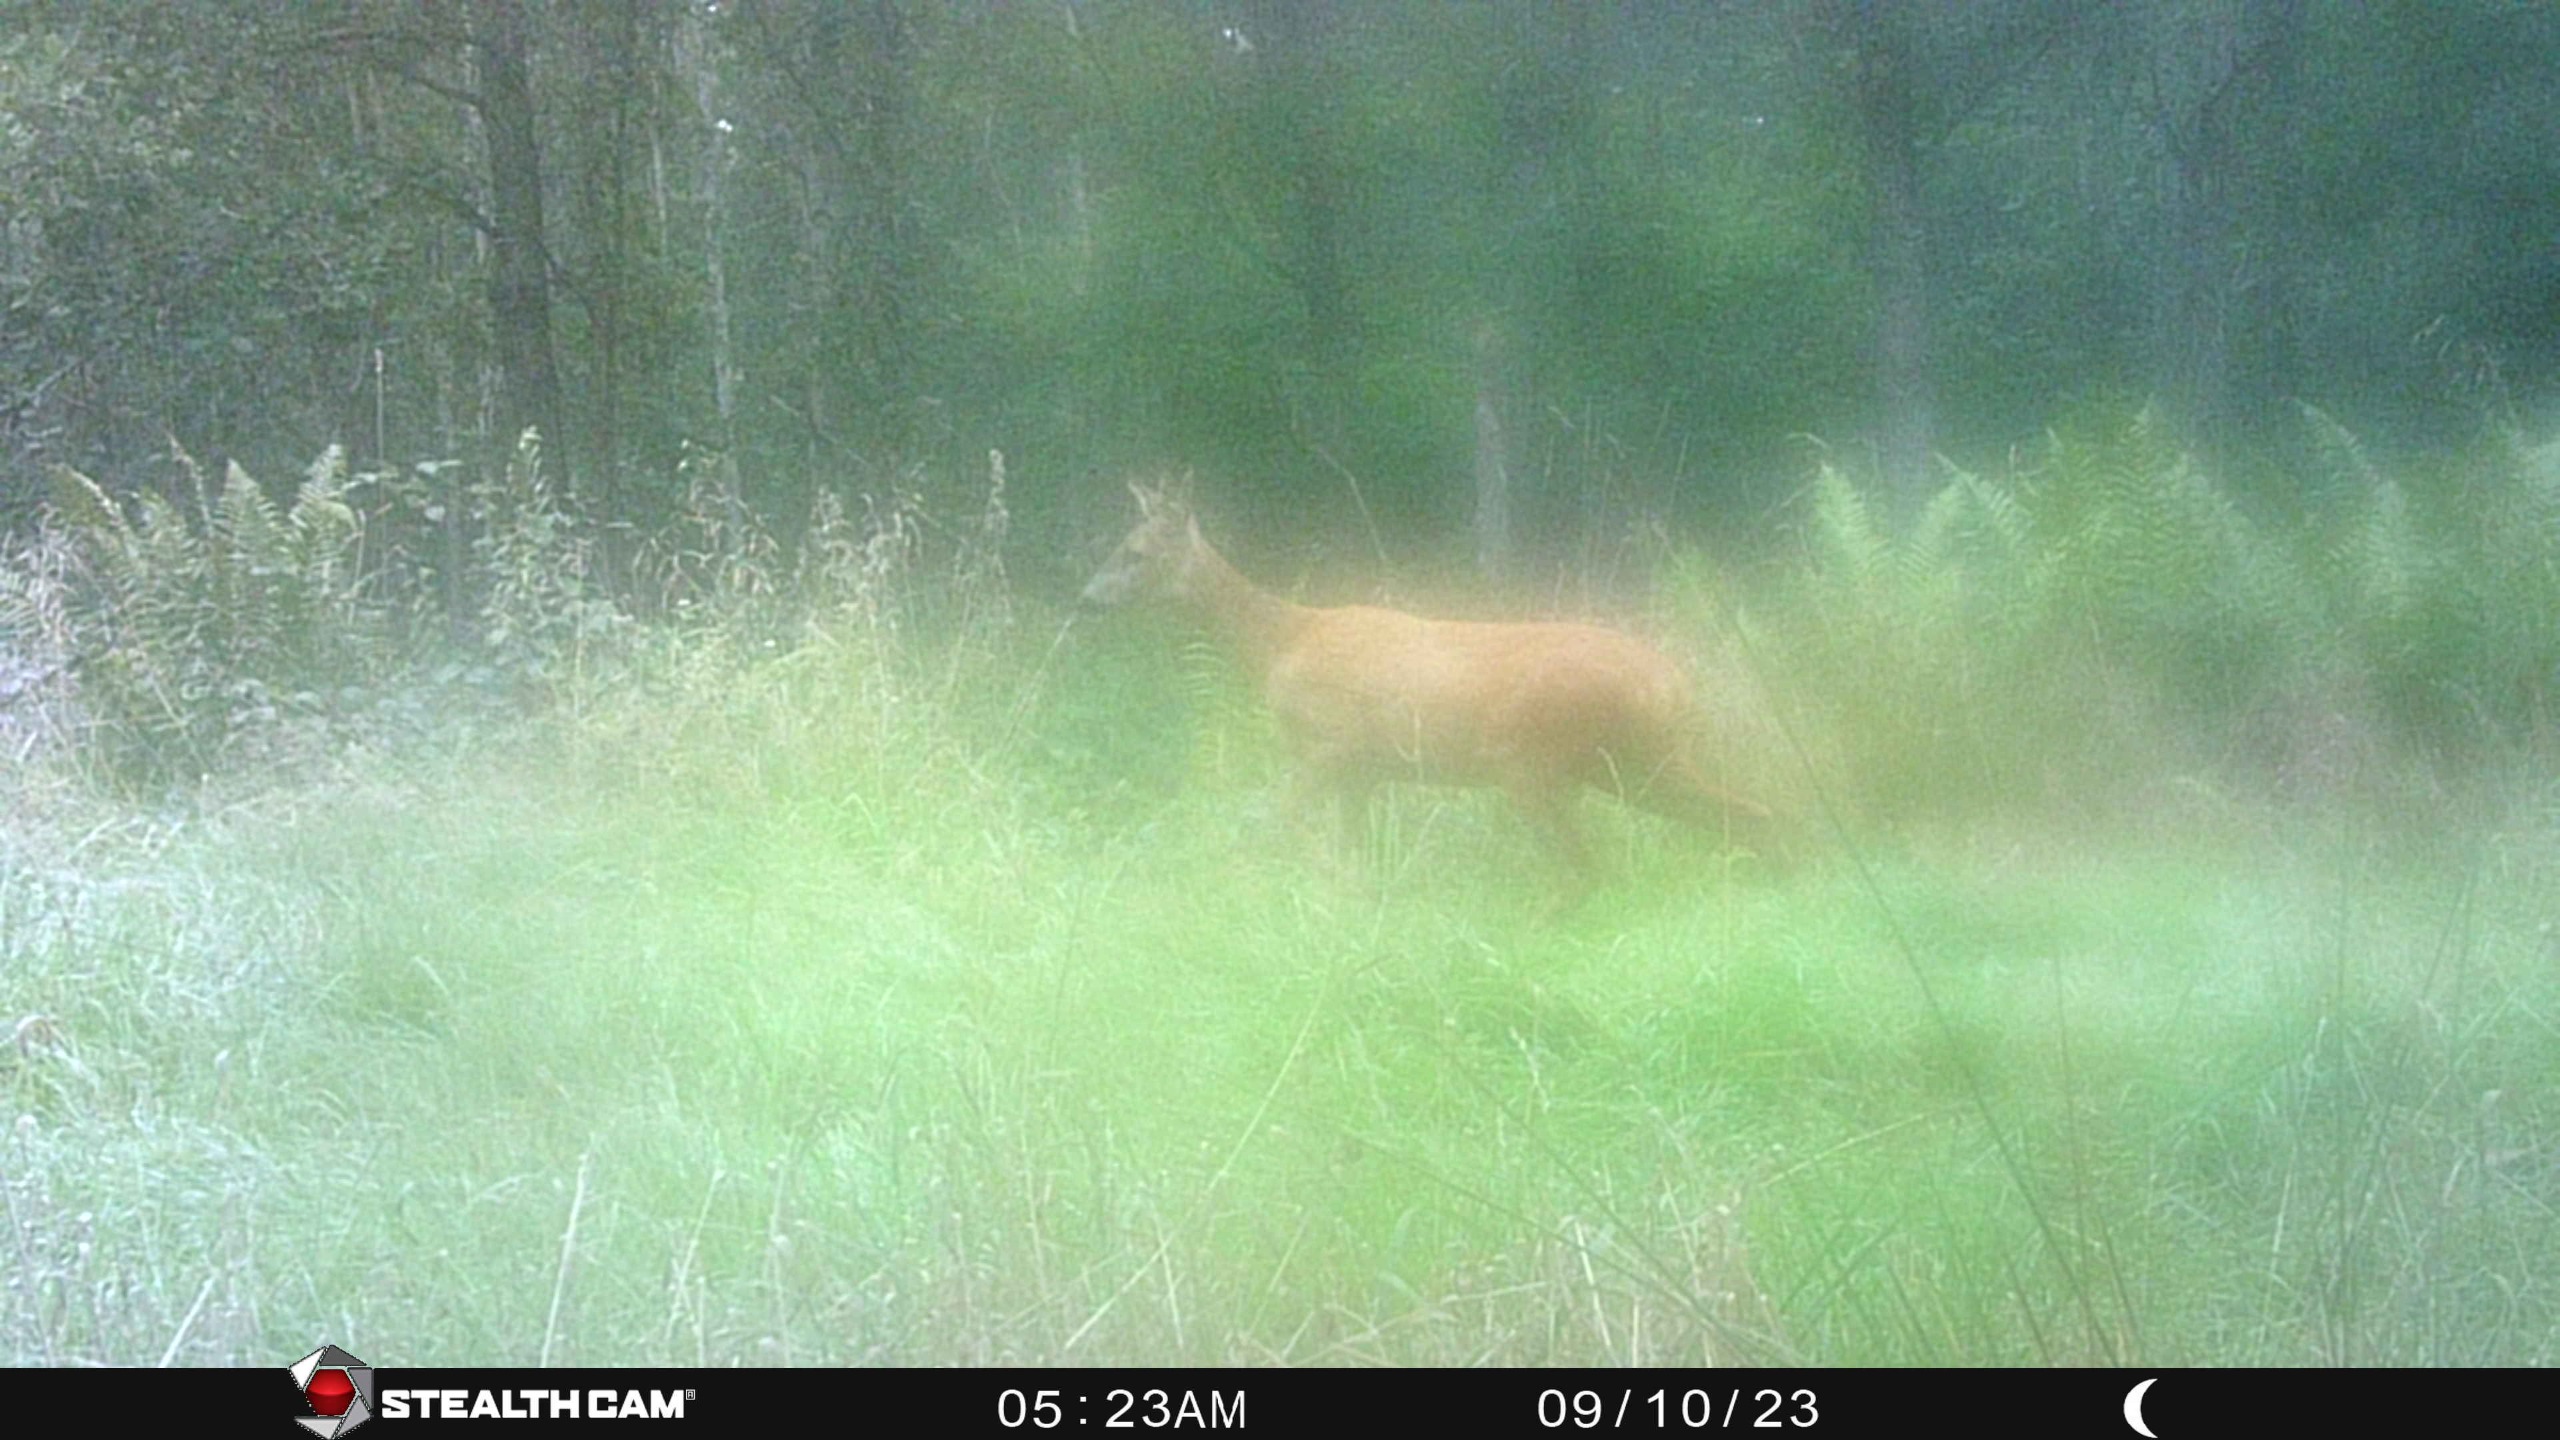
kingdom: Animalia
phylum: Chordata
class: Mammalia
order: Artiodactyla
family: Cervidae
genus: Capreolus
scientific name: Capreolus capreolus
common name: Rådyr
